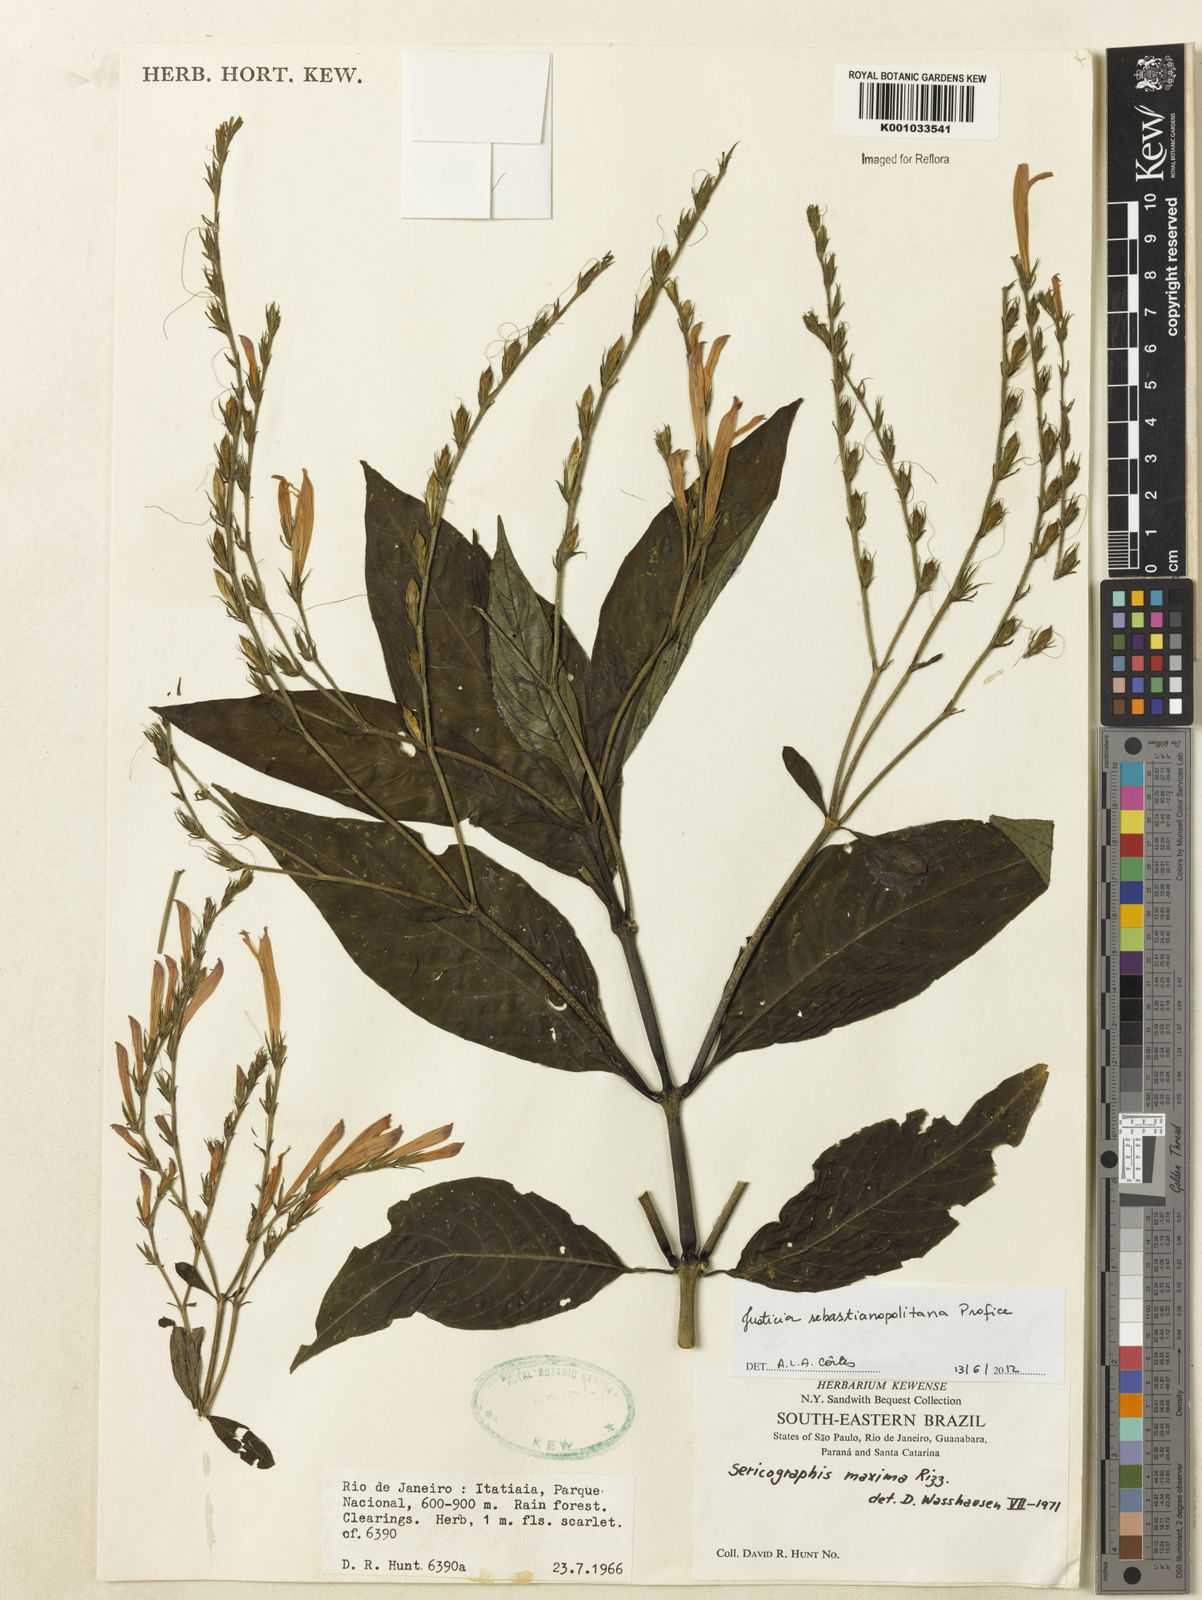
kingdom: Plantae
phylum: Tracheophyta
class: Magnoliopsida
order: Lamiales
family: Acanthaceae
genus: Justicia
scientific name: Justicia sebastianopolitanae
